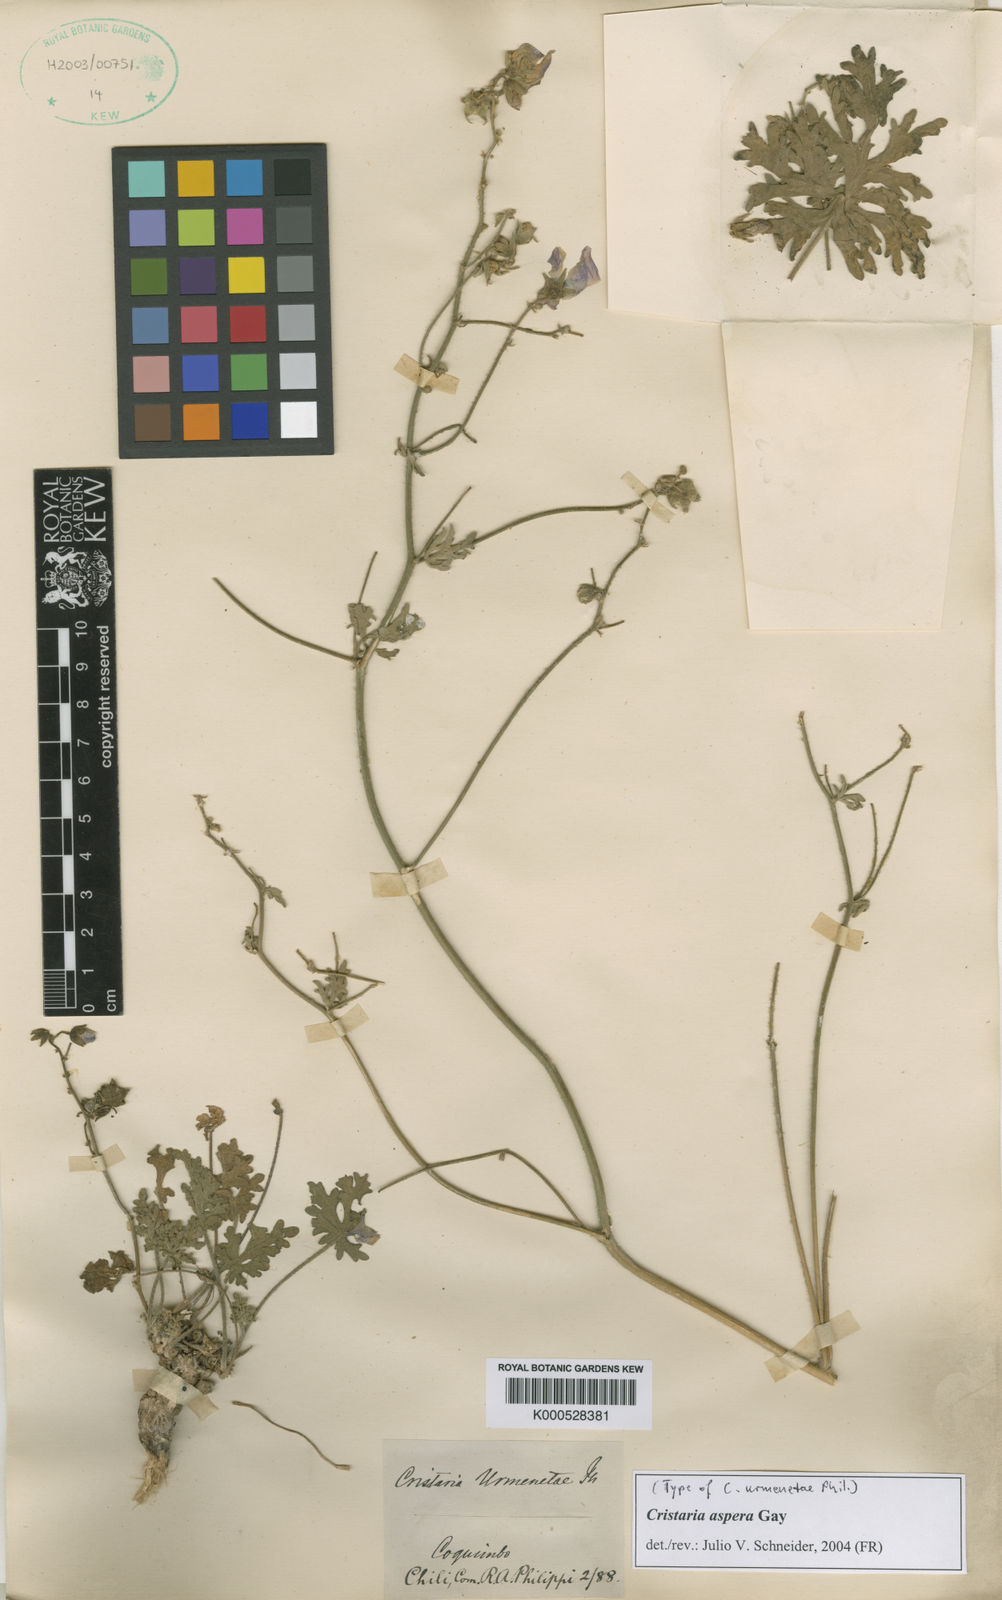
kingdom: Plantae
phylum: Tracheophyta
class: Magnoliopsida
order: Malvales
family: Malvaceae
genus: Cristaria
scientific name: Cristaria aspera
